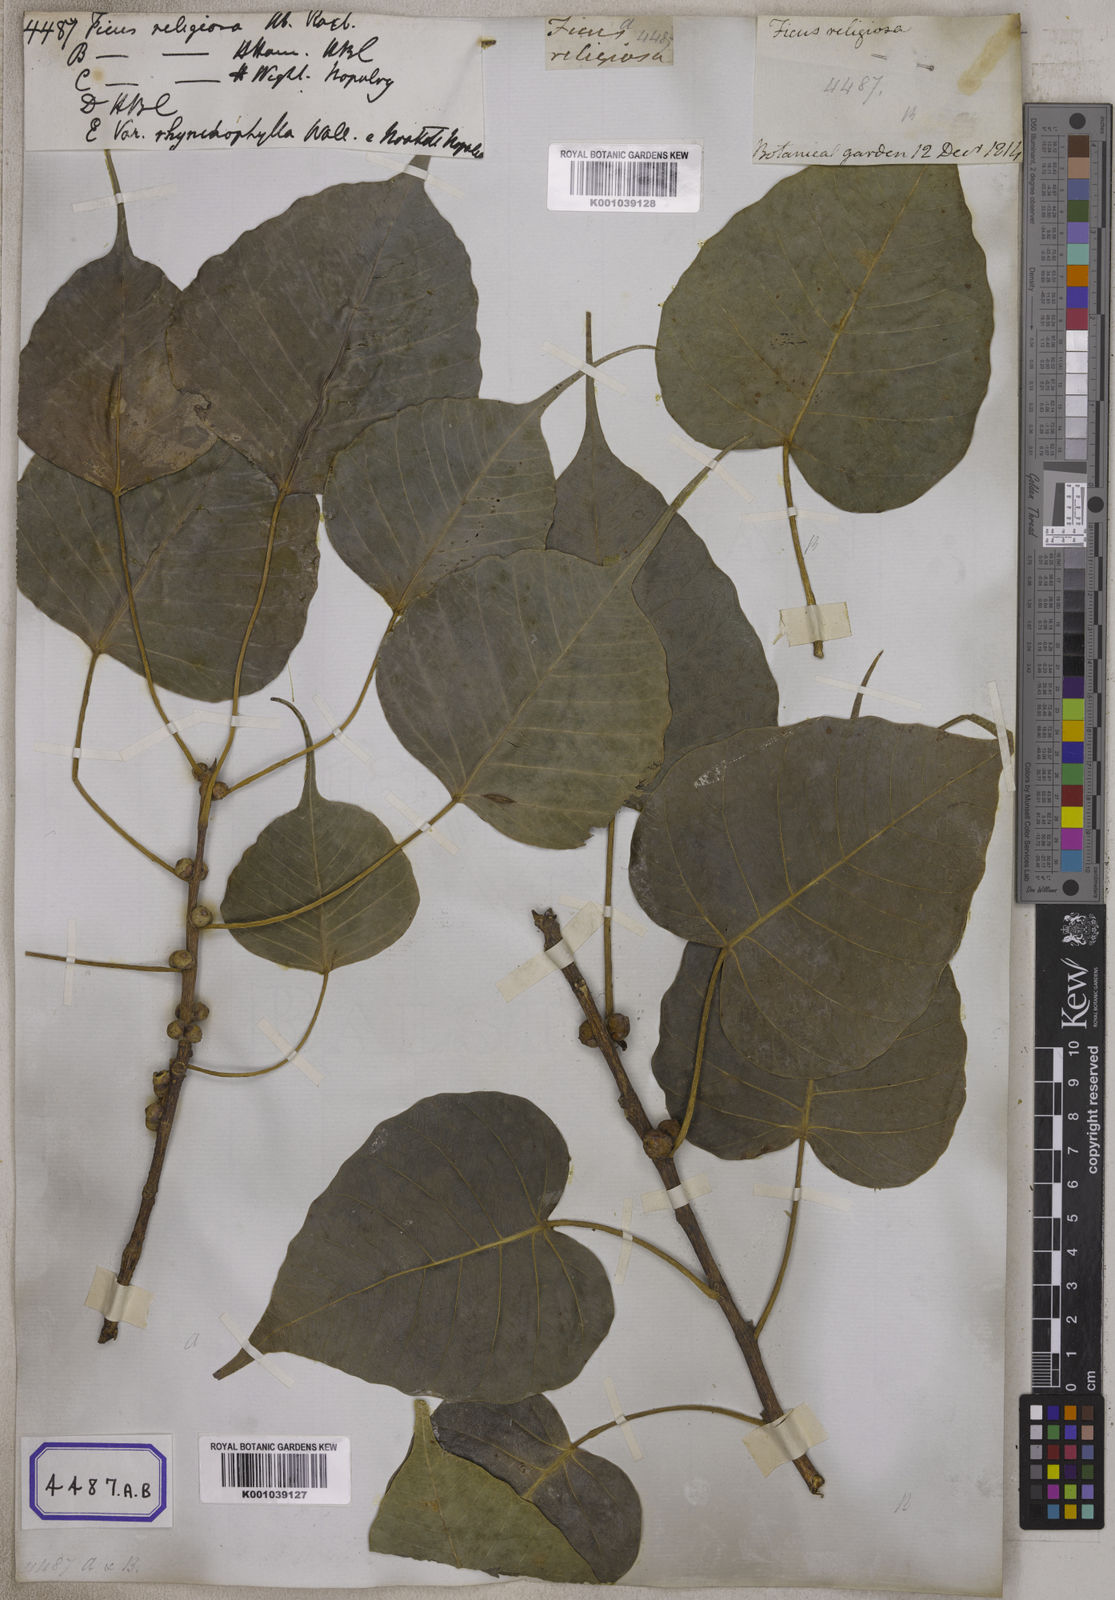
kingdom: Plantae
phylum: Tracheophyta
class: Magnoliopsida
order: Rosales
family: Moraceae
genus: Ficus
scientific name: Ficus religiosa
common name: Bodhi tree
